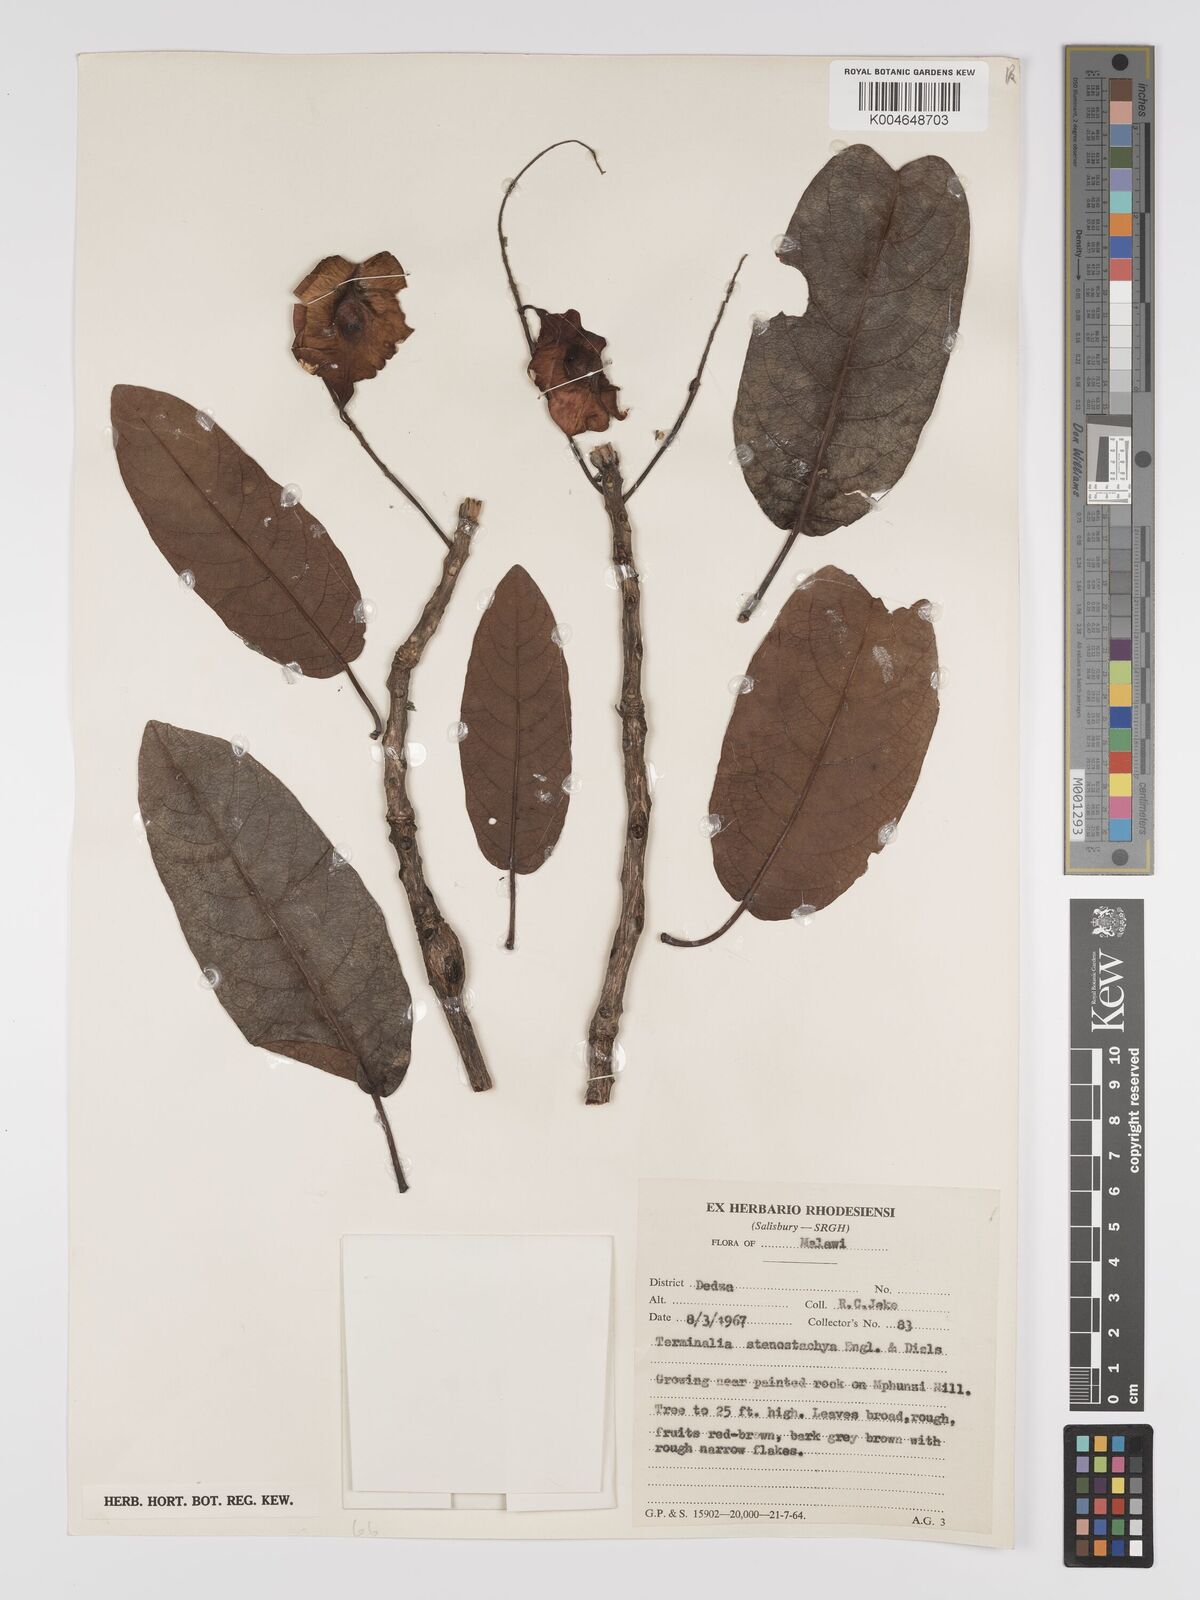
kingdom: Plantae
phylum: Tracheophyta
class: Magnoliopsida
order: Myrtales
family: Combretaceae
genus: Terminalia
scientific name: Terminalia stenostachya
